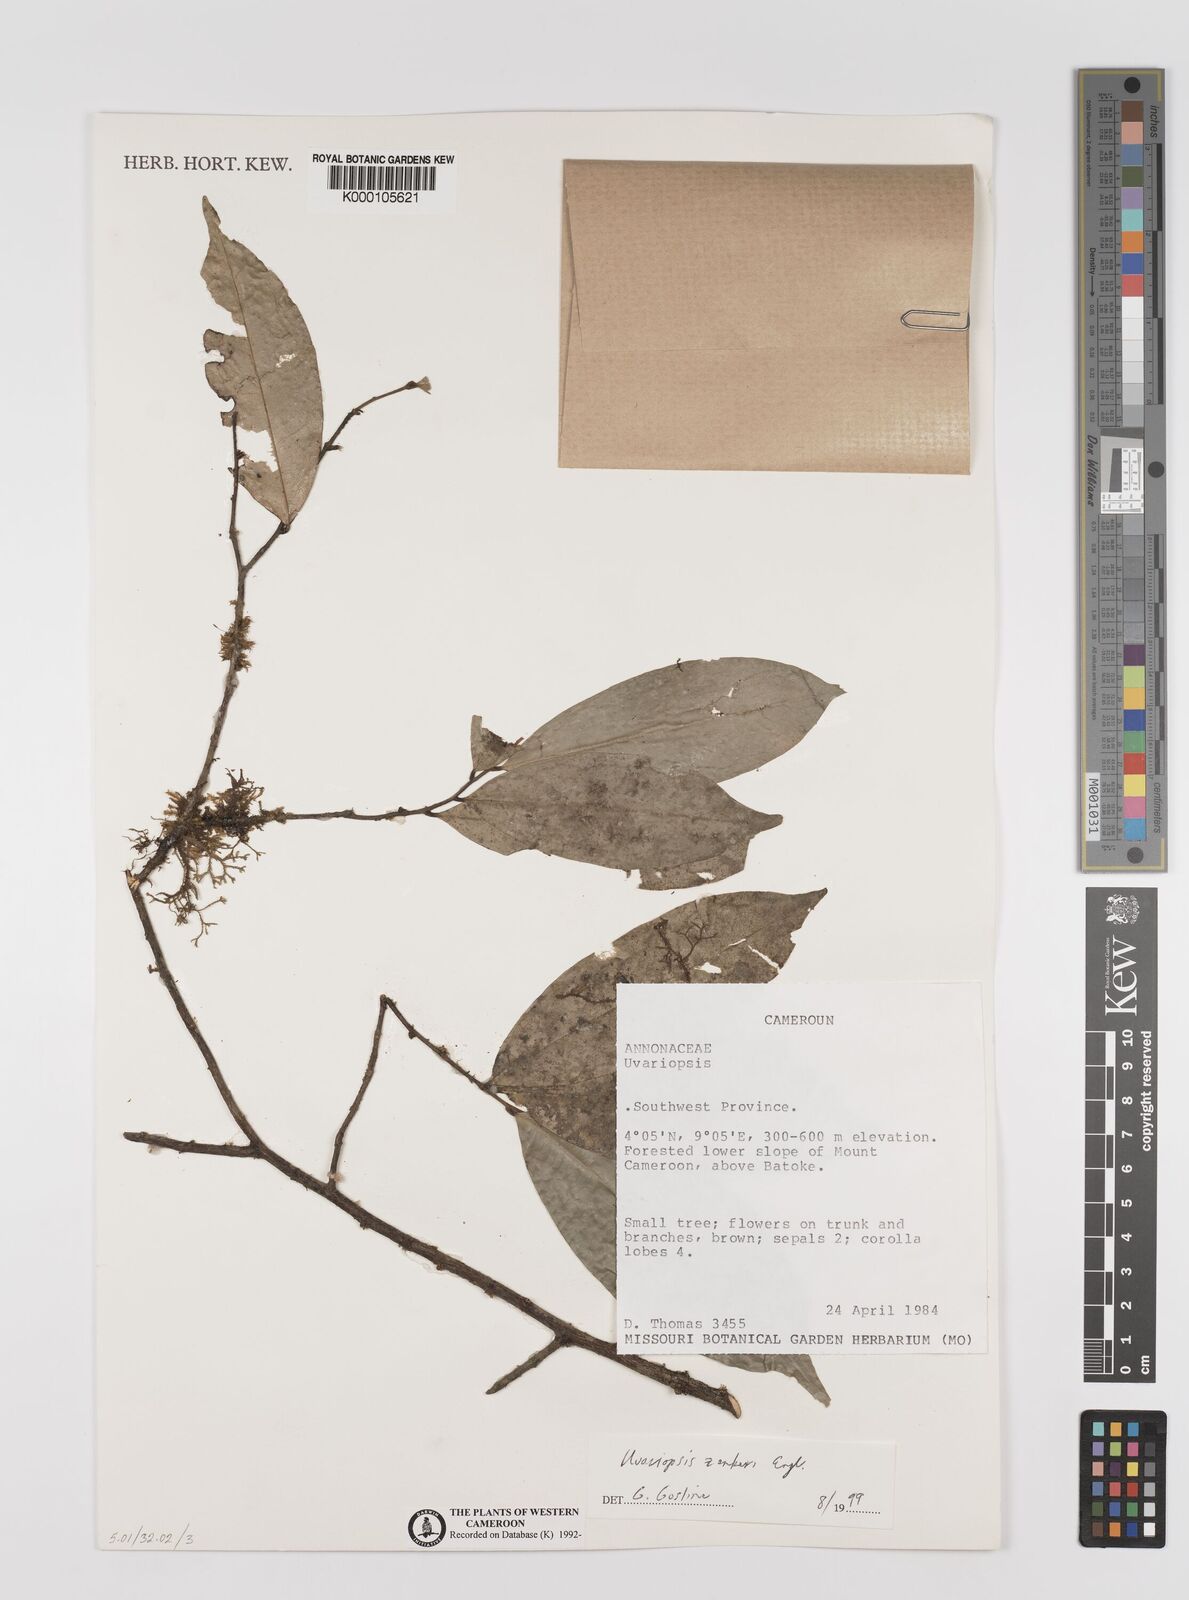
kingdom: Plantae
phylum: Tracheophyta
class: Magnoliopsida
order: Magnoliales
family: Annonaceae
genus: Uvariopsis
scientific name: Uvariopsis zenkeri
